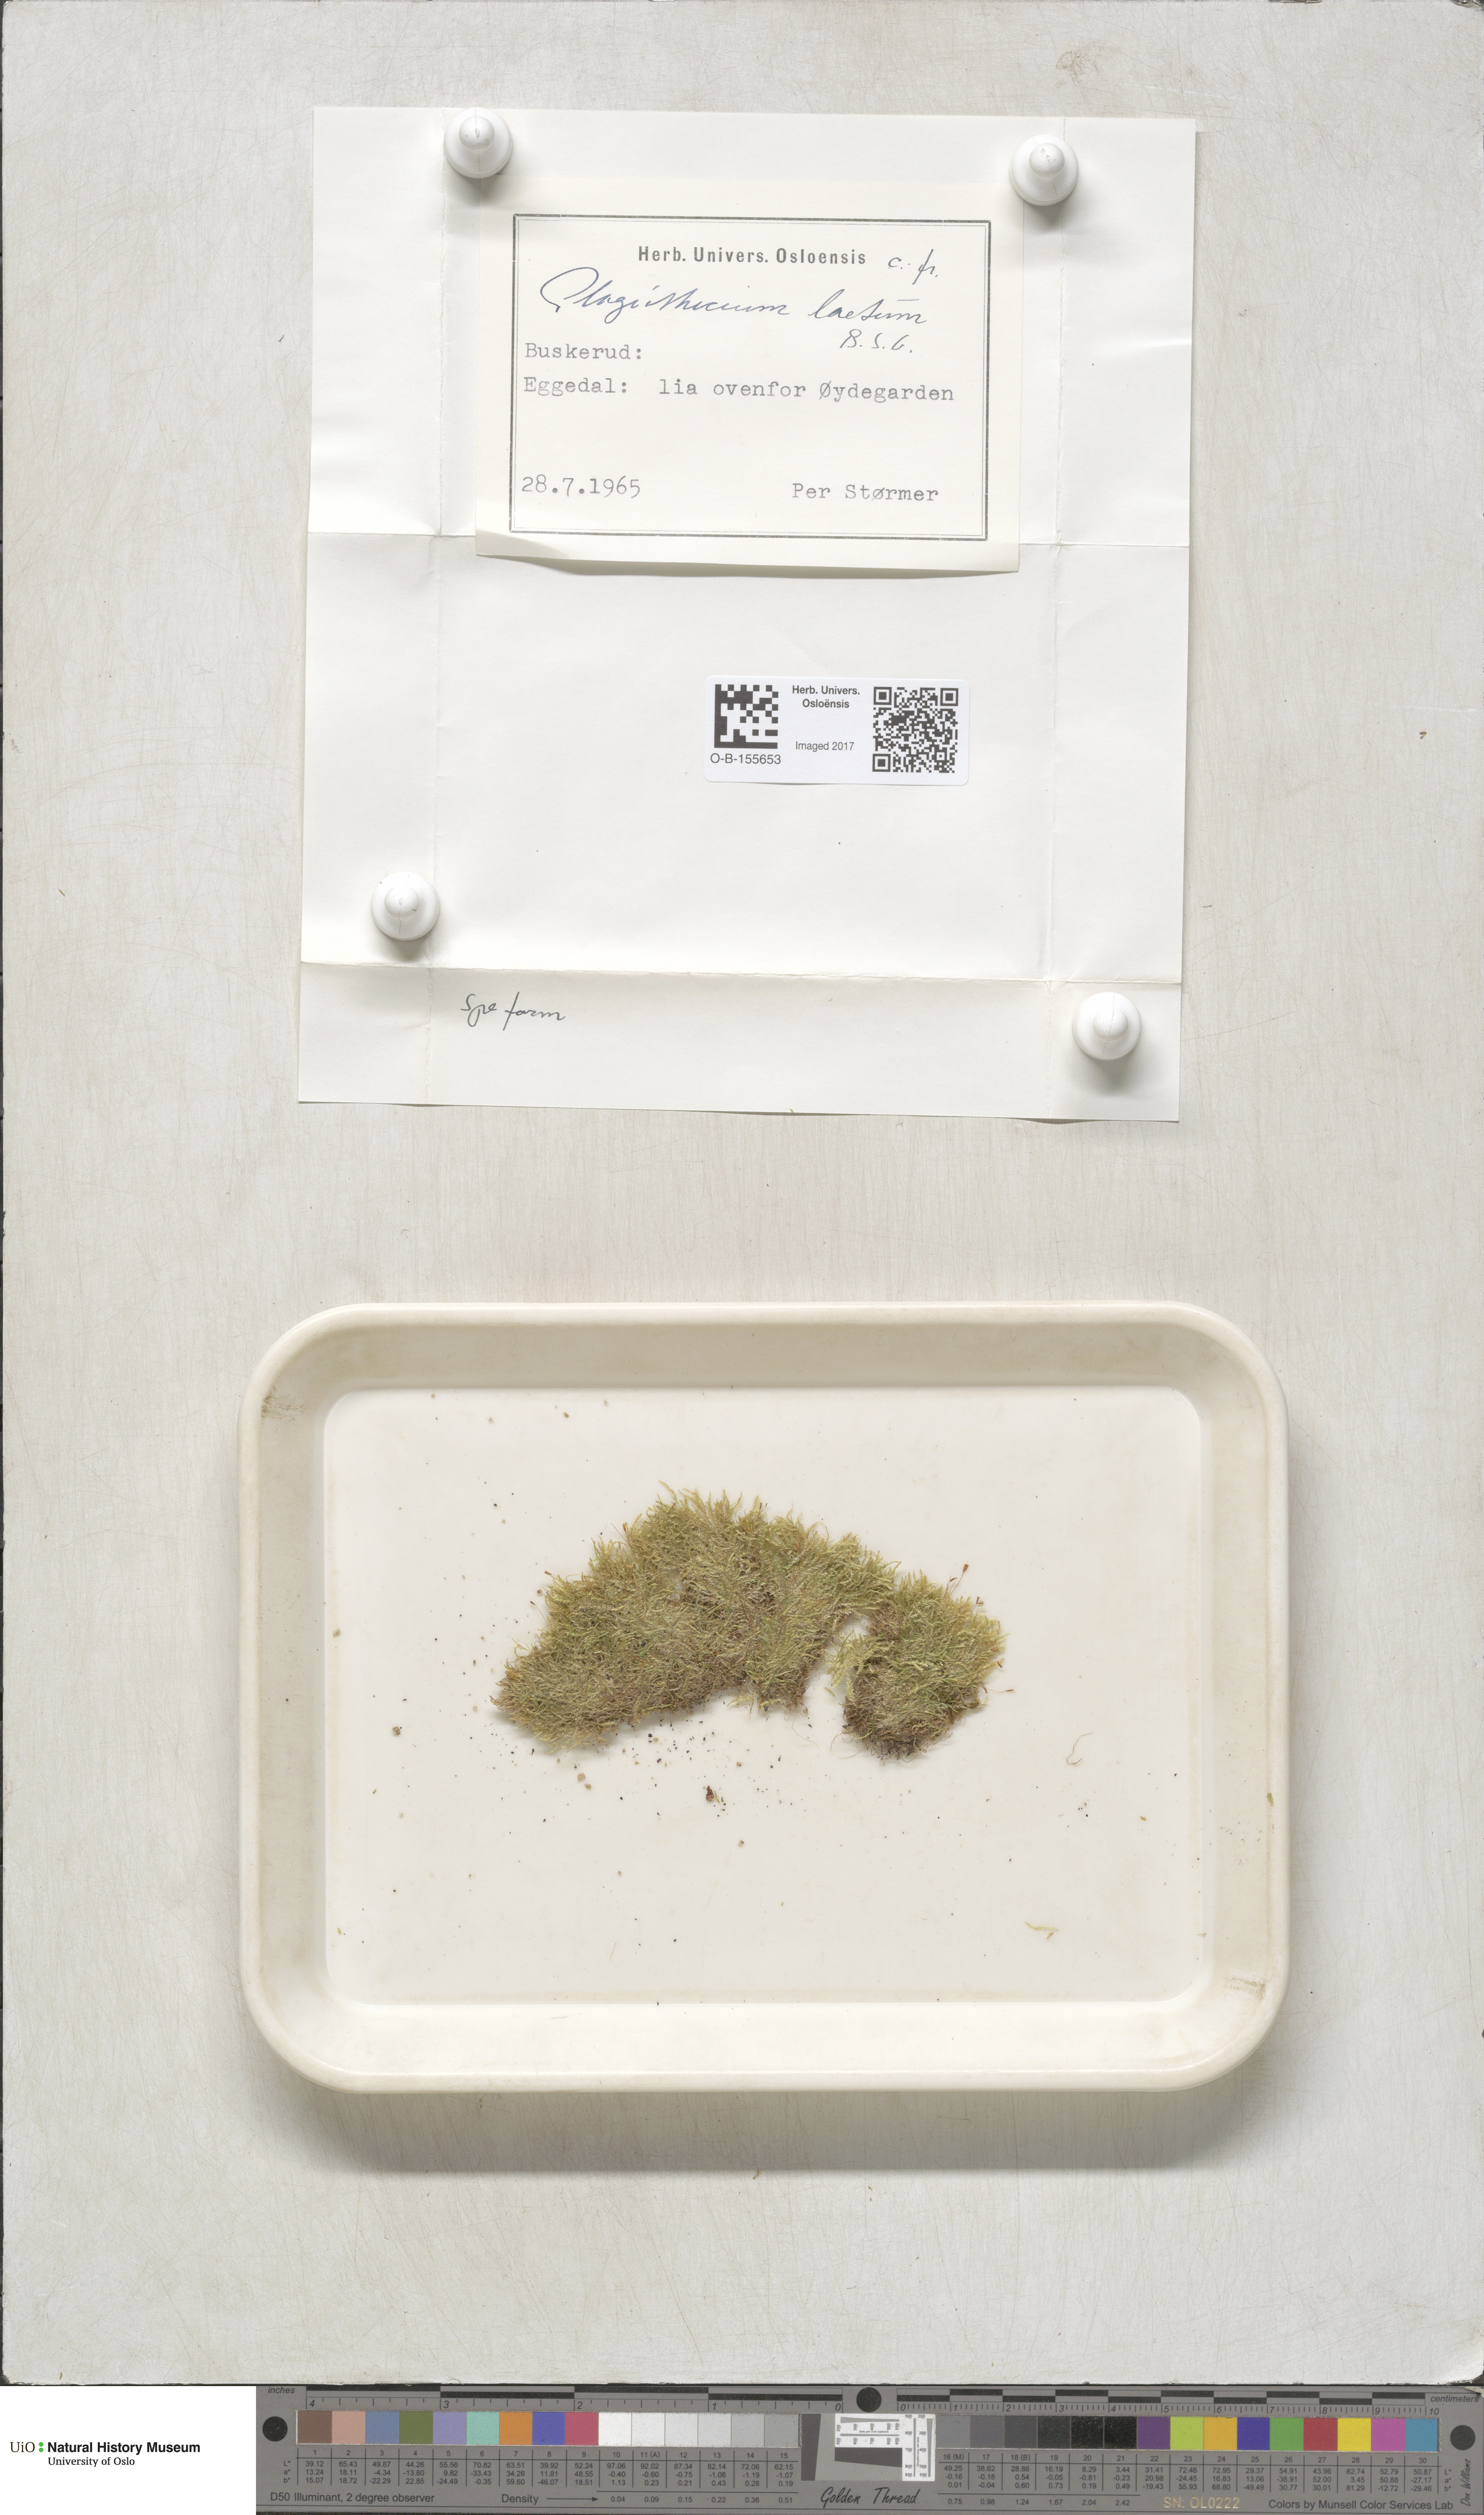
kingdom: Plantae
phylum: Bryophyta
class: Bryopsida
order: Hypnales
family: Plagiotheciaceae
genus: Plagiothecium
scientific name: Plagiothecium laetum
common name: Bright silk moss
